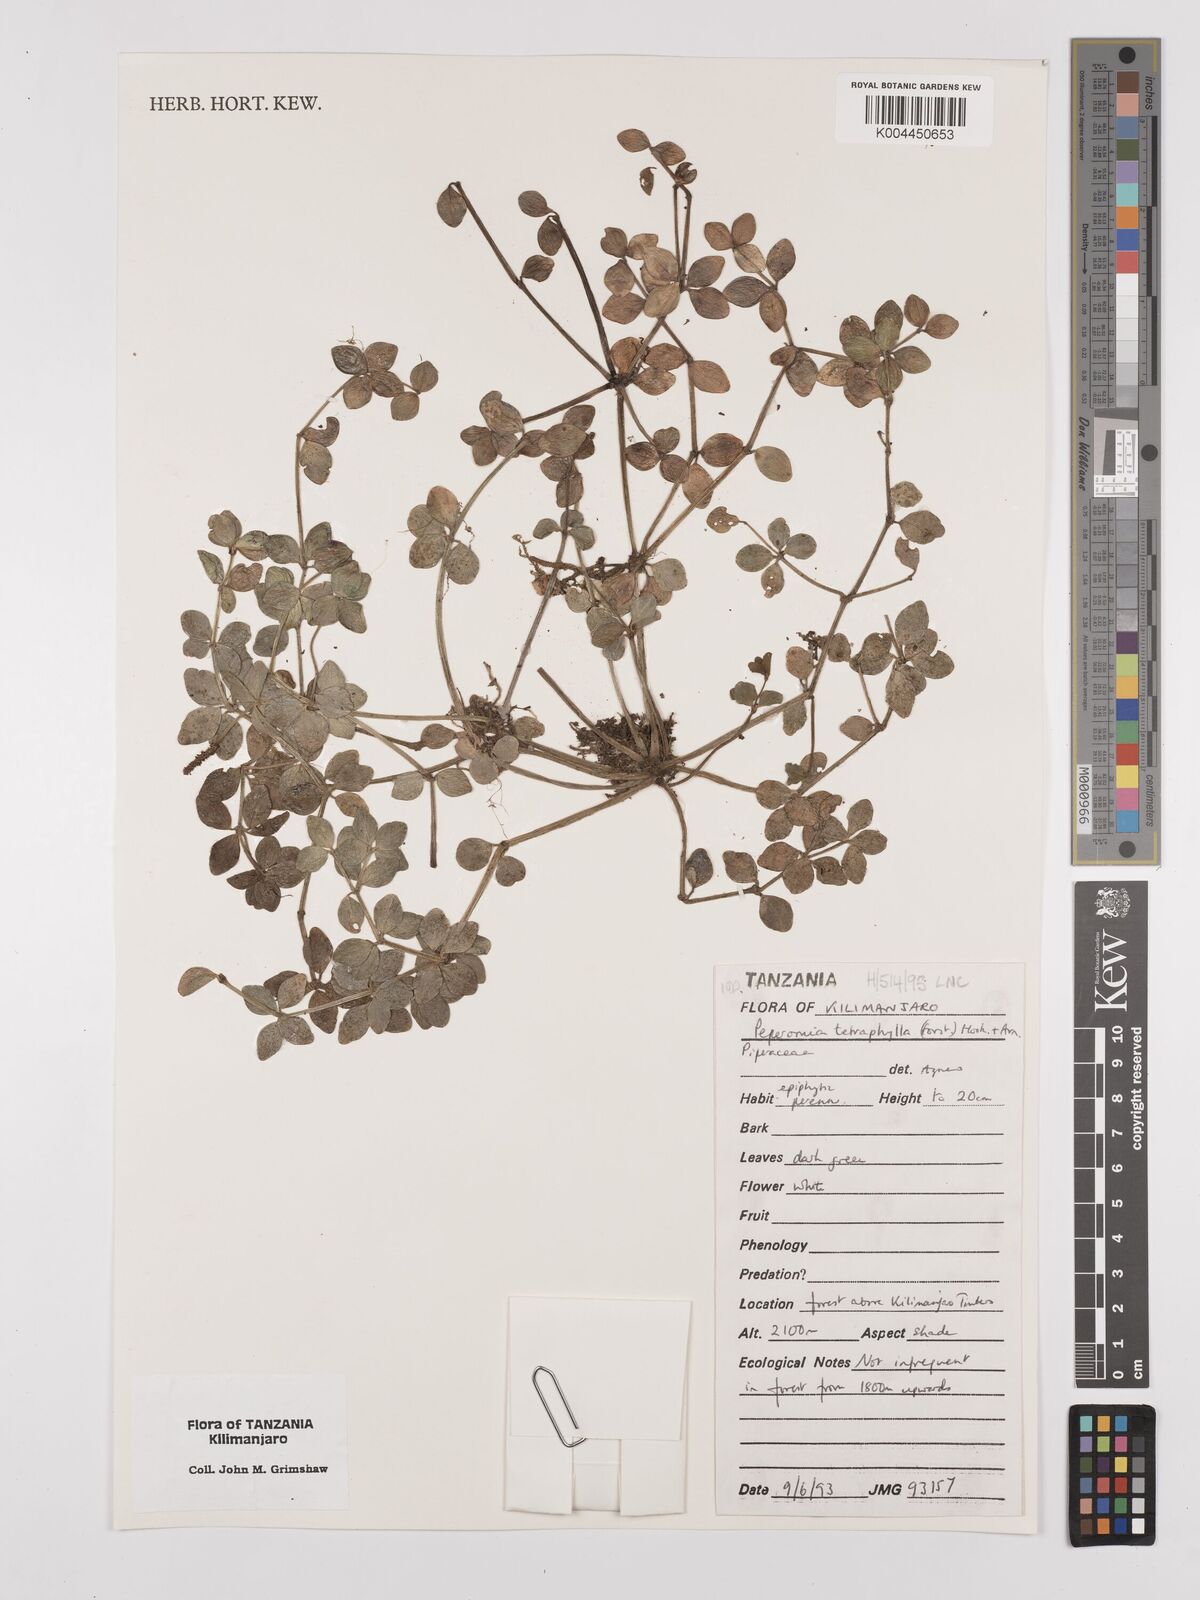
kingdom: Plantae
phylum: Tracheophyta
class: Magnoliopsida
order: Piperales
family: Piperaceae
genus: Peperomia
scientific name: Peperomia tetraphylla
